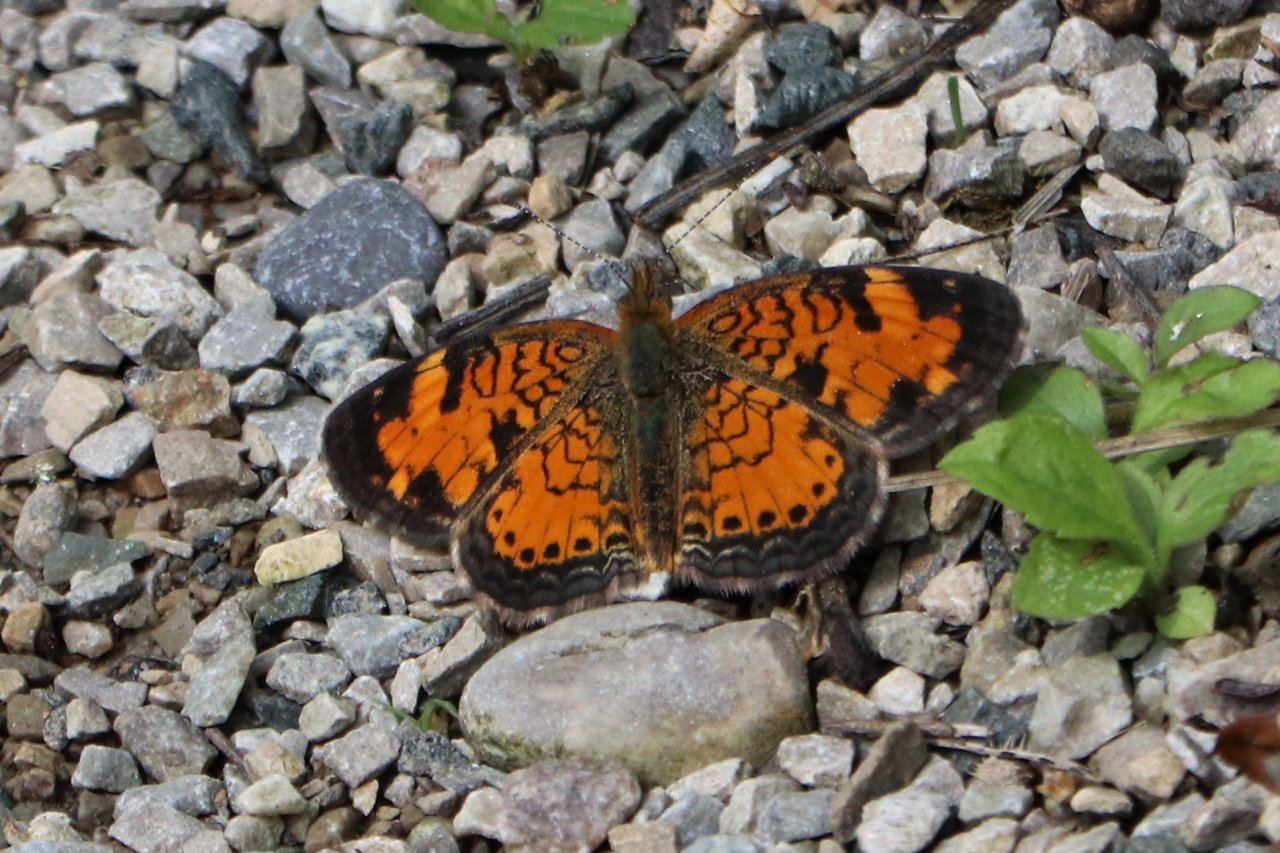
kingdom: Animalia
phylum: Arthropoda
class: Insecta
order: Lepidoptera
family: Nymphalidae
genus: Phyciodes
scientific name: Phyciodes tharos
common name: Northern Crescent
